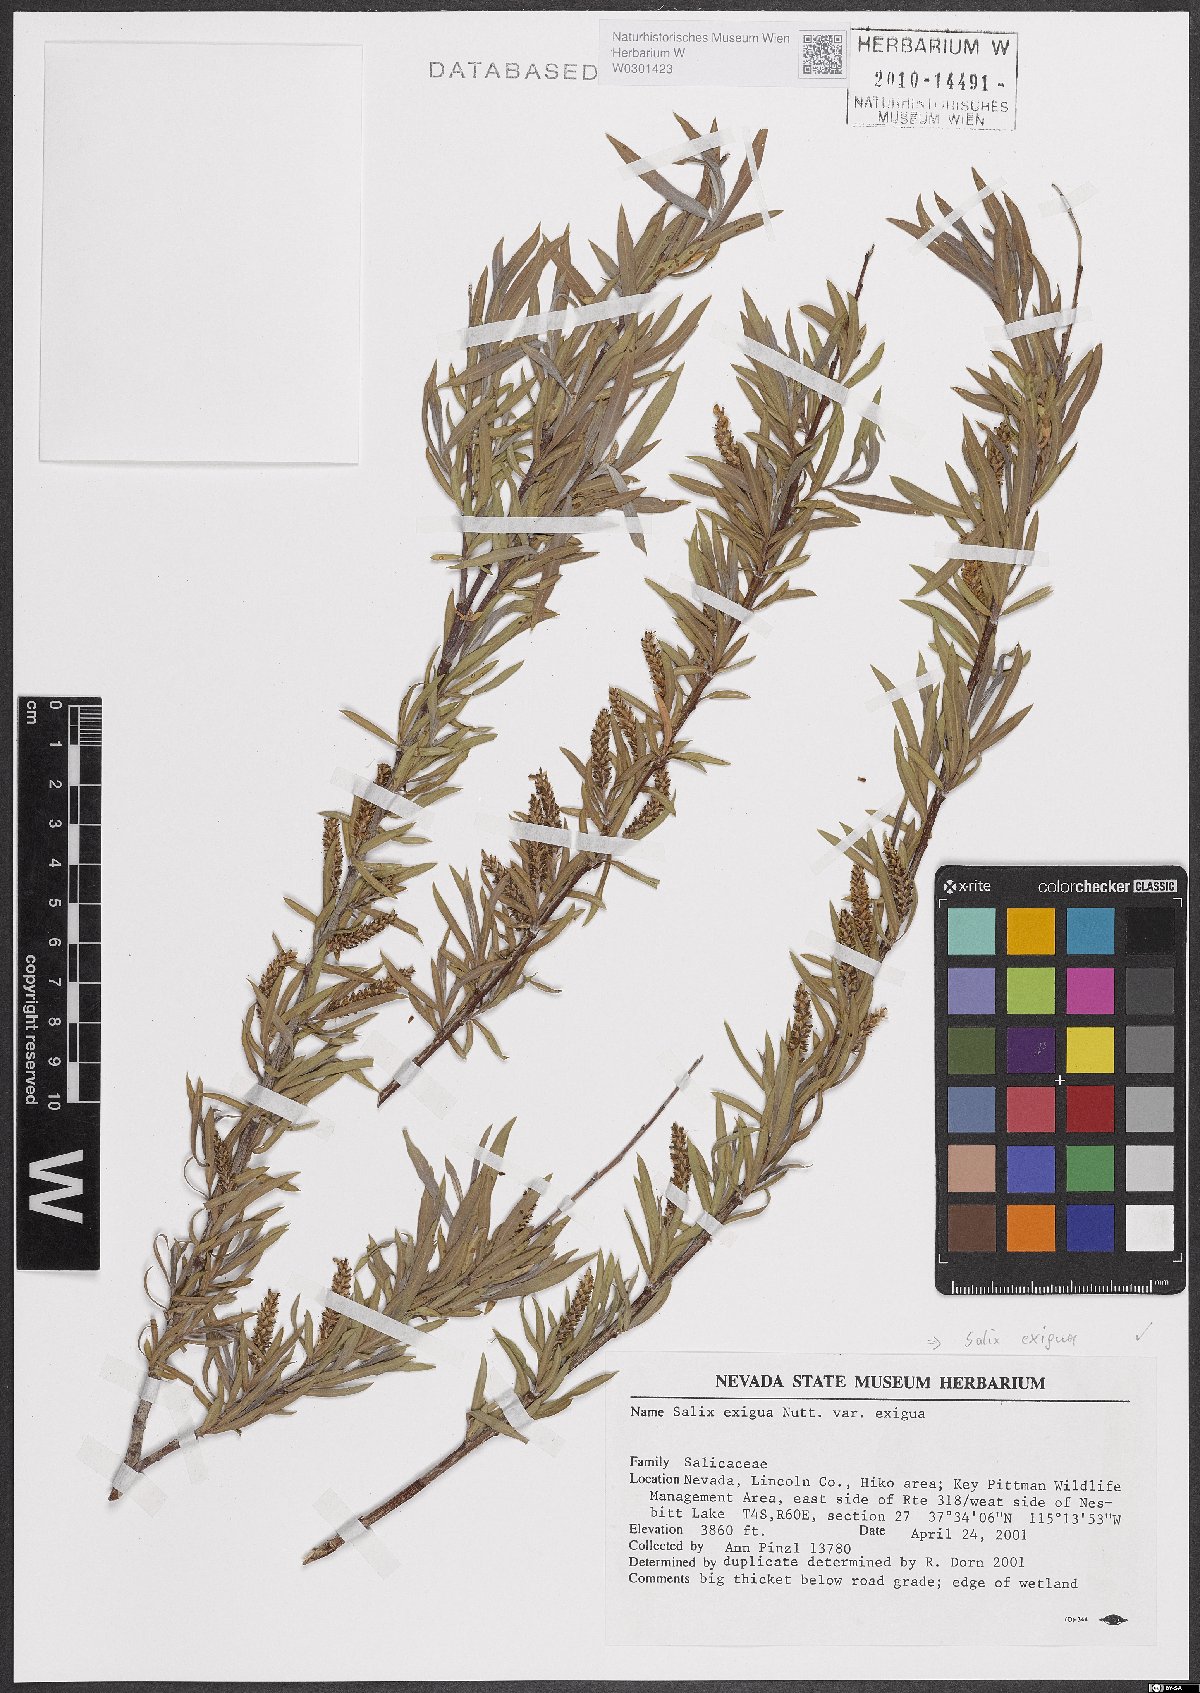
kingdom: Plantae
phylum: Tracheophyta
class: Magnoliopsida
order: Malpighiales
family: Salicaceae
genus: Salix
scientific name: Salix exigua
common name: Coyote willow
